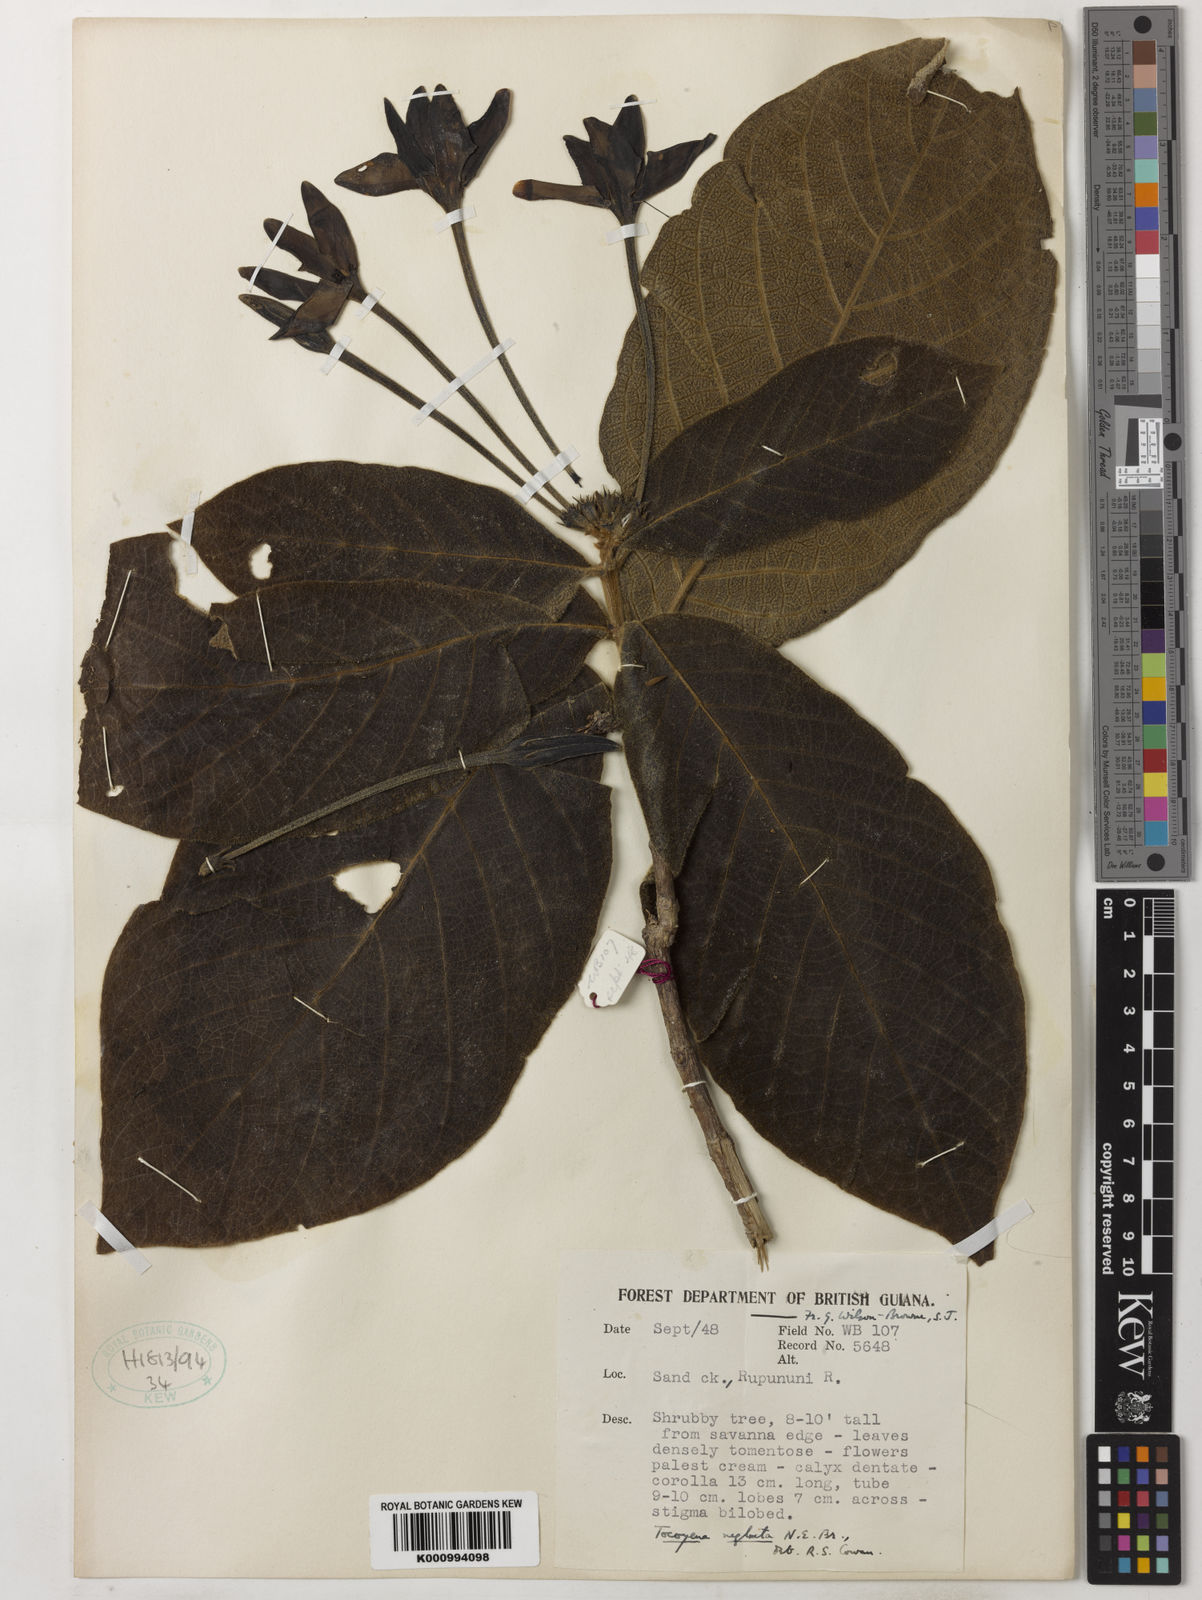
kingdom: Plantae
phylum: Tracheophyta
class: Magnoliopsida
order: Gentianales
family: Rubiaceae
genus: Tocoyena
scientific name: Tocoyena neglecta
